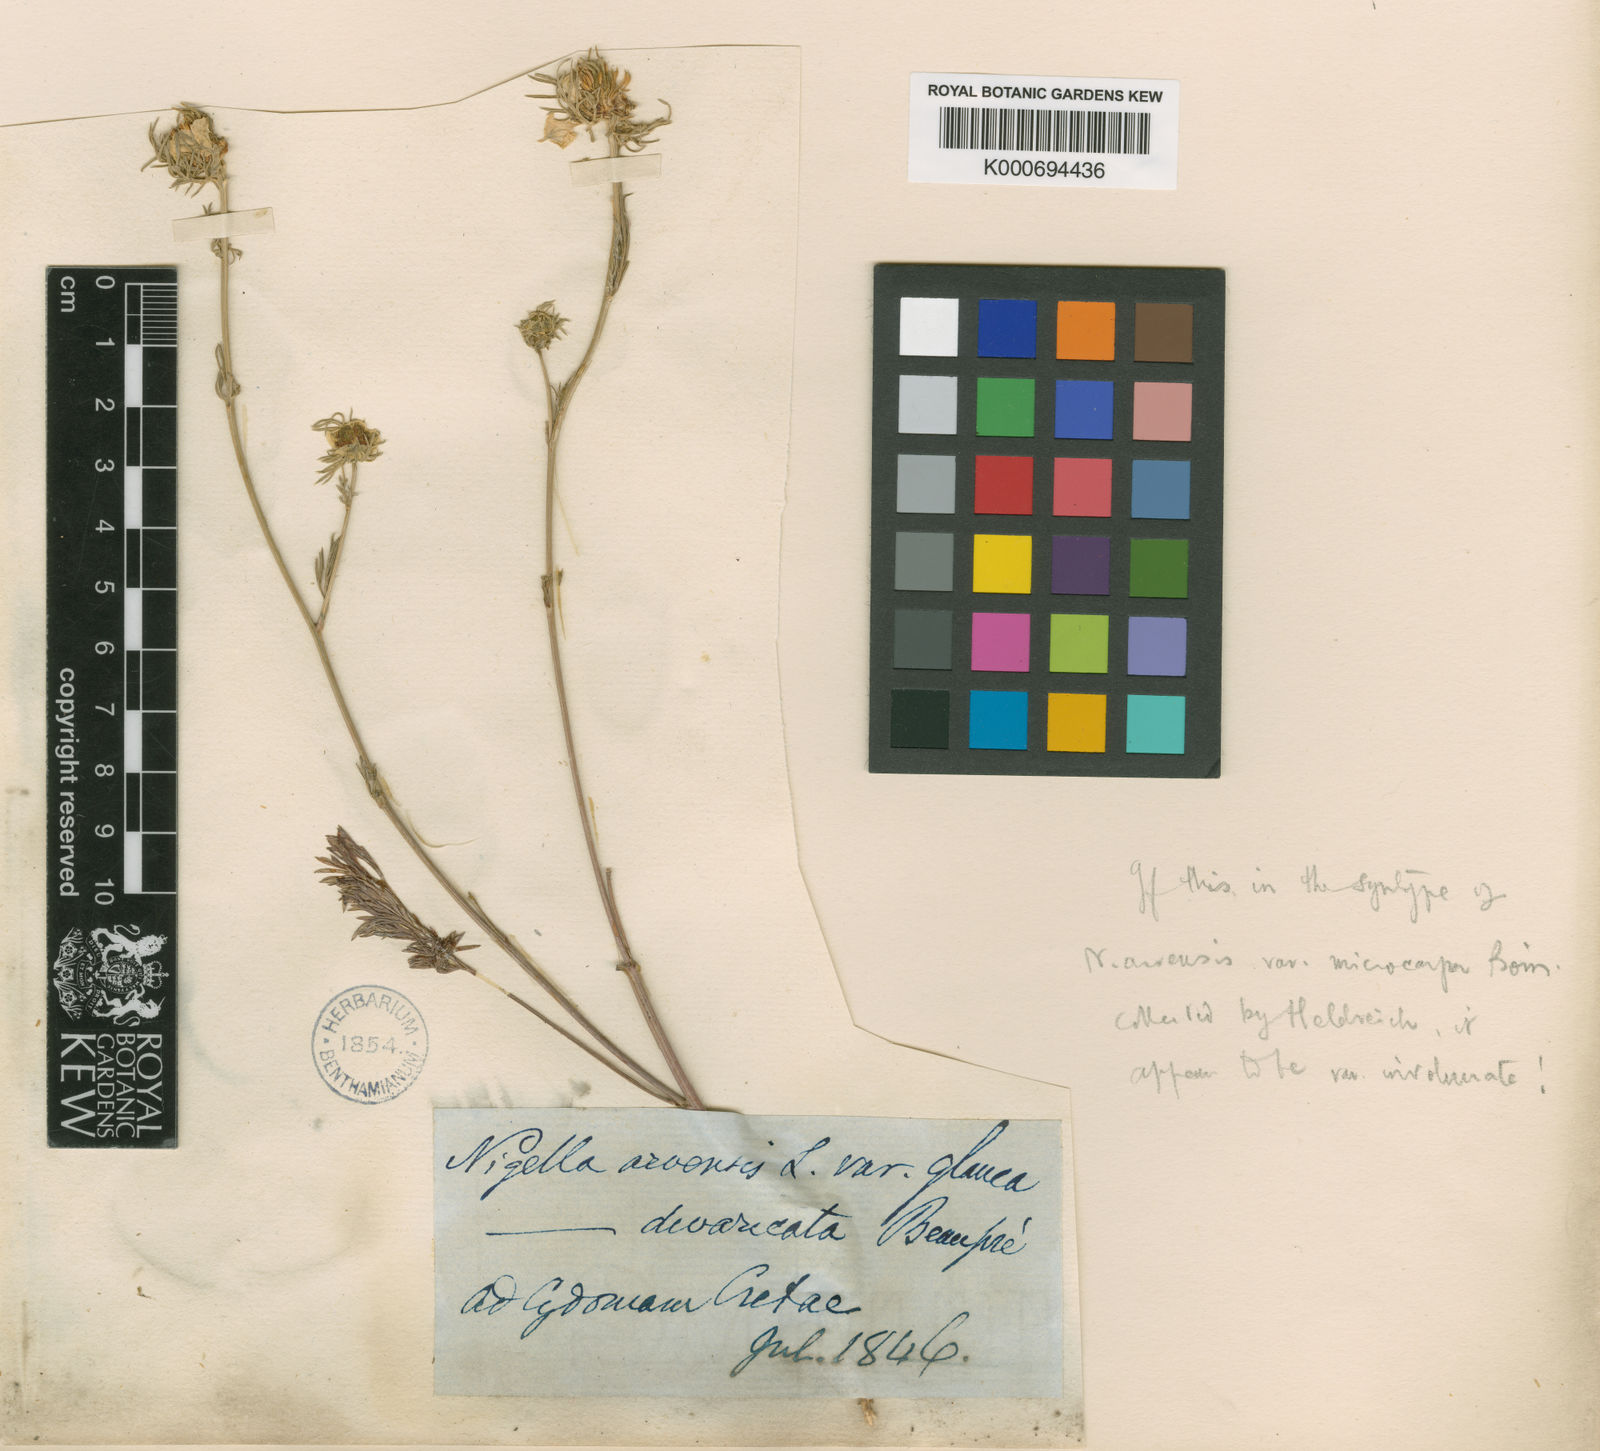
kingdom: Plantae
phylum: Tracheophyta
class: Magnoliopsida
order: Ranunculales
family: Ranunculaceae
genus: Nigella
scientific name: Nigella arvensis
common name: Wild fennel-flower
